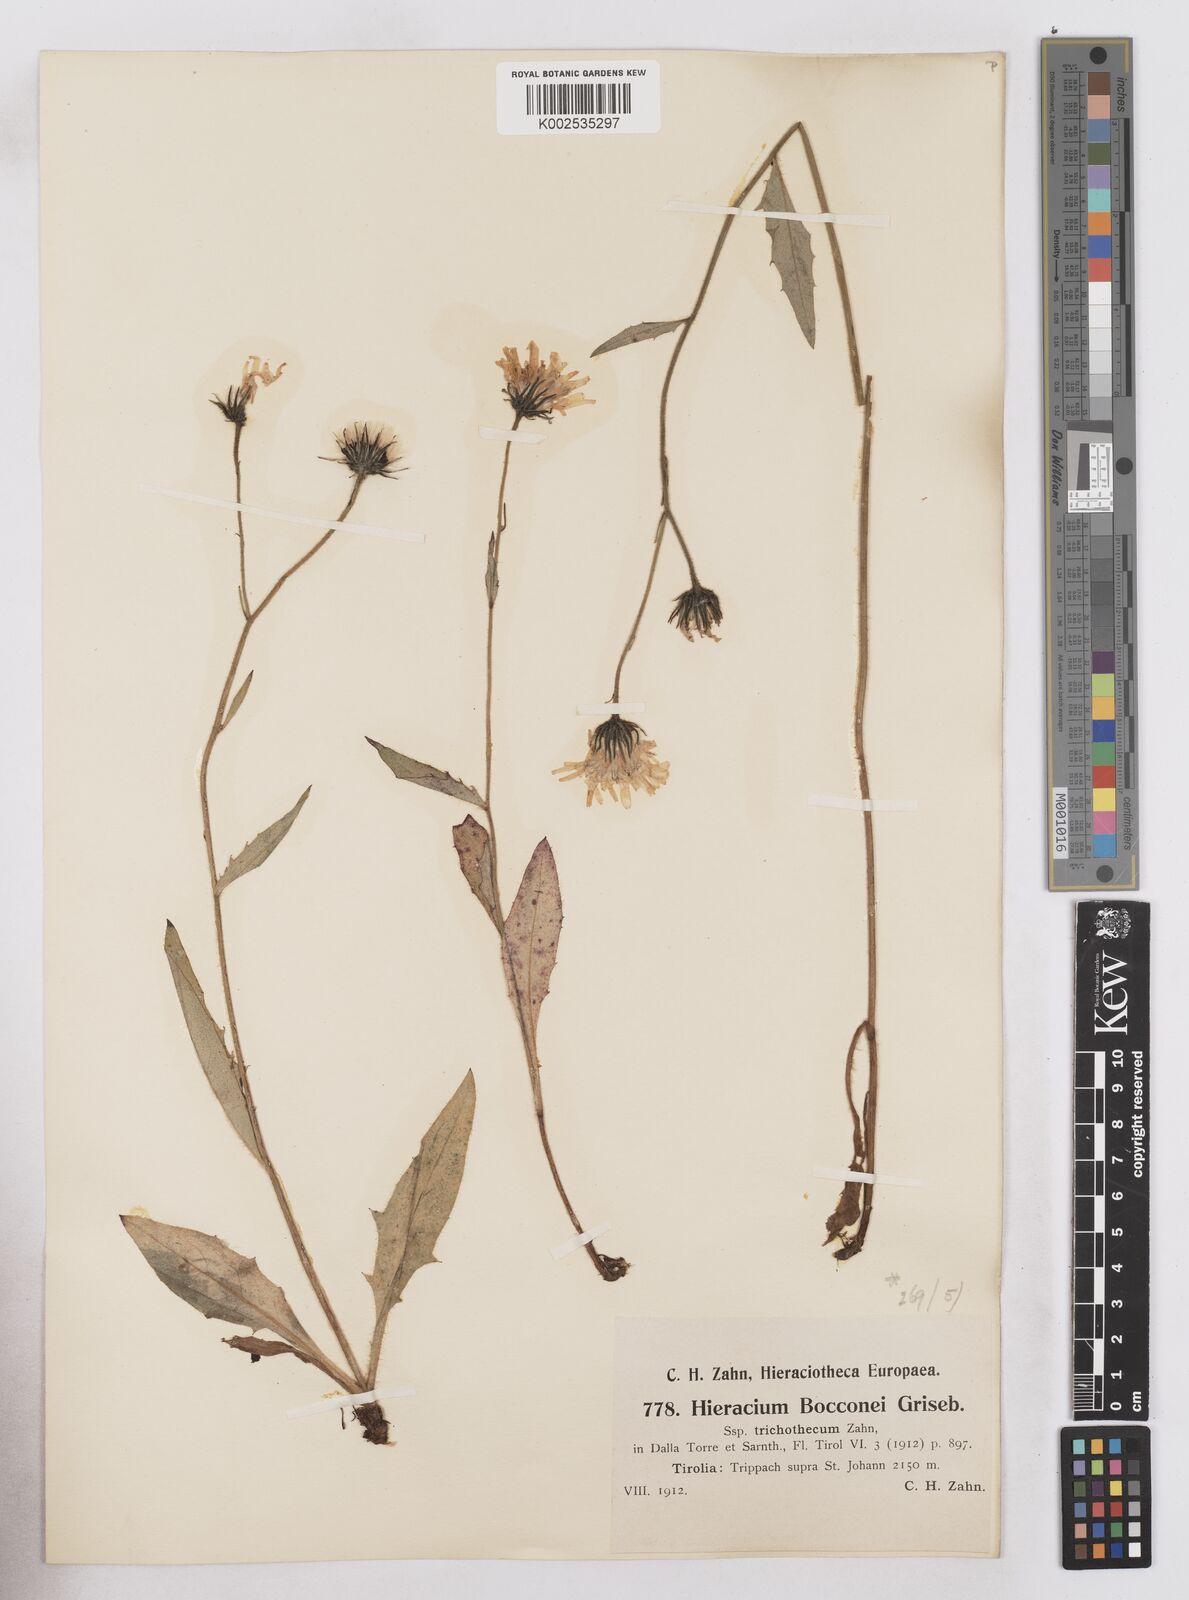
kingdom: Plantae
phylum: Tracheophyta
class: Magnoliopsida
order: Asterales
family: Asteraceae
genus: Hieracium
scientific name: Hieracium kuekenthalianum
